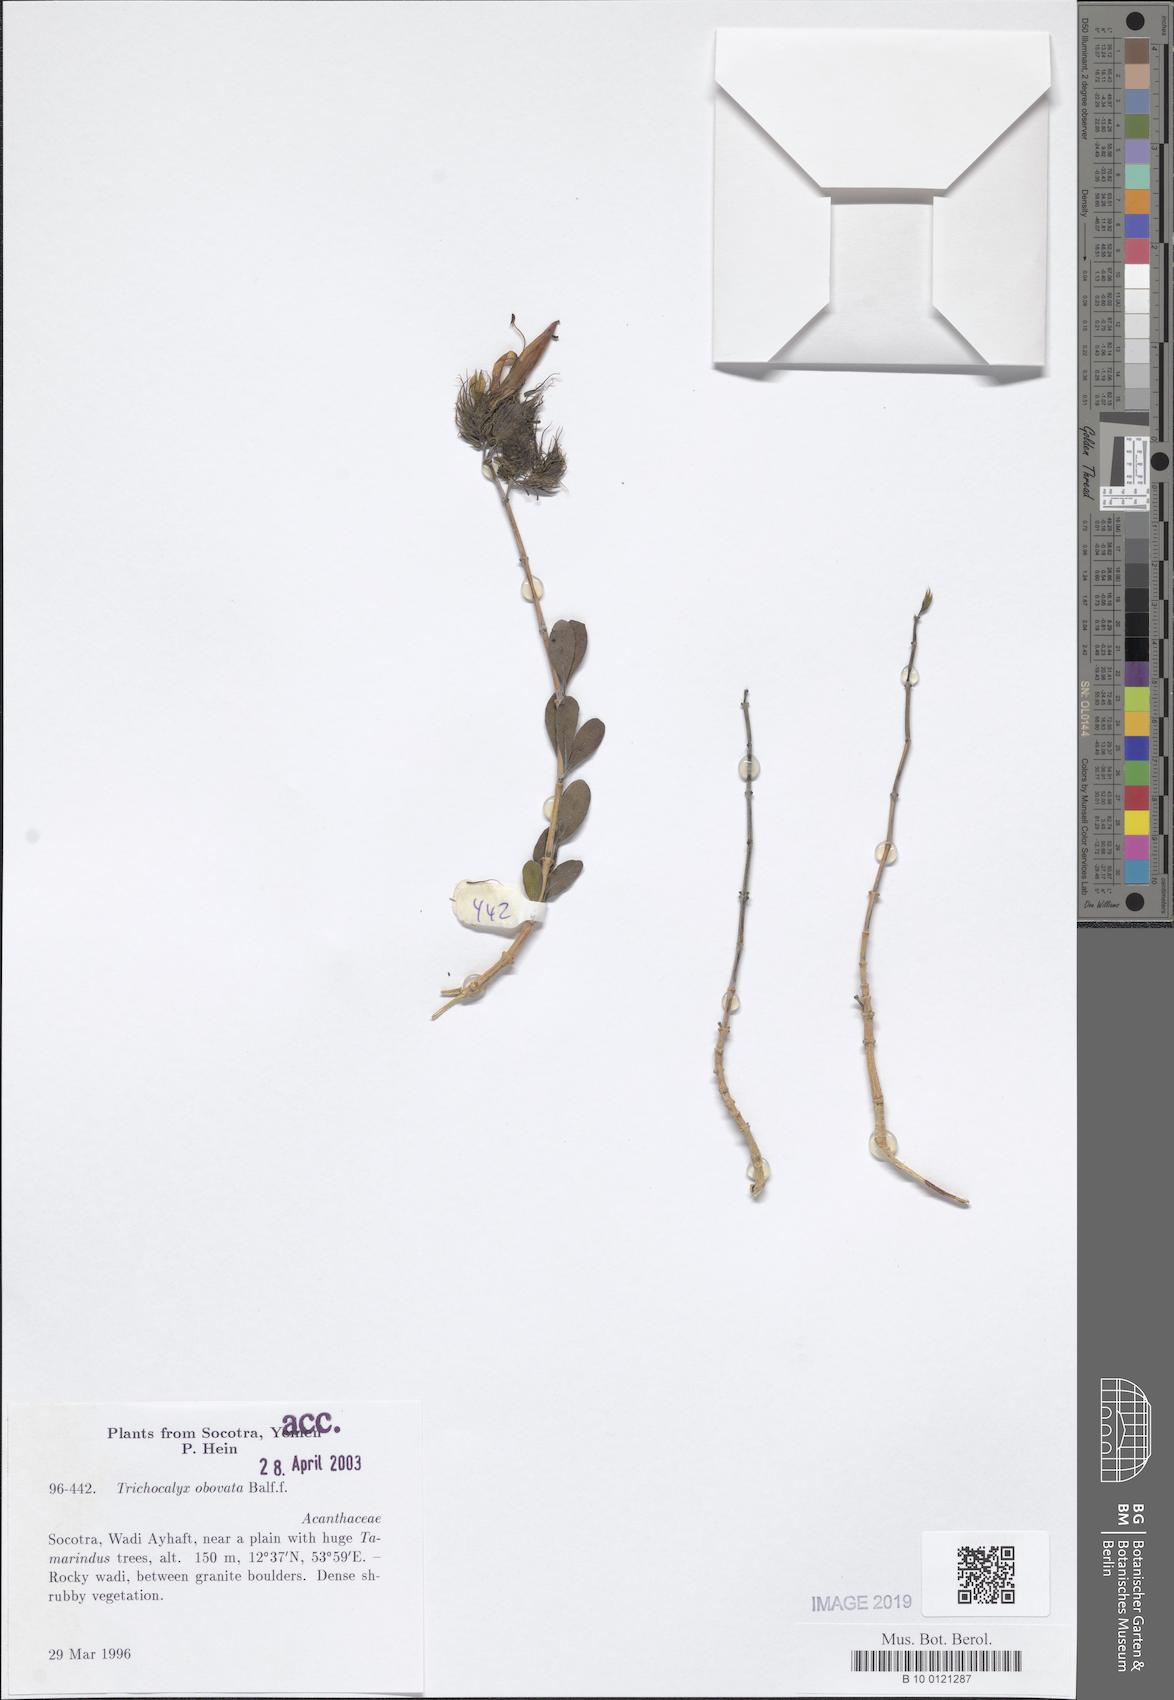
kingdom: Plantae
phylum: Tracheophyta
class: Magnoliopsida
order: Lamiales
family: Acanthaceae
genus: Trichocalyx
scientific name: Trichocalyx obovatus
